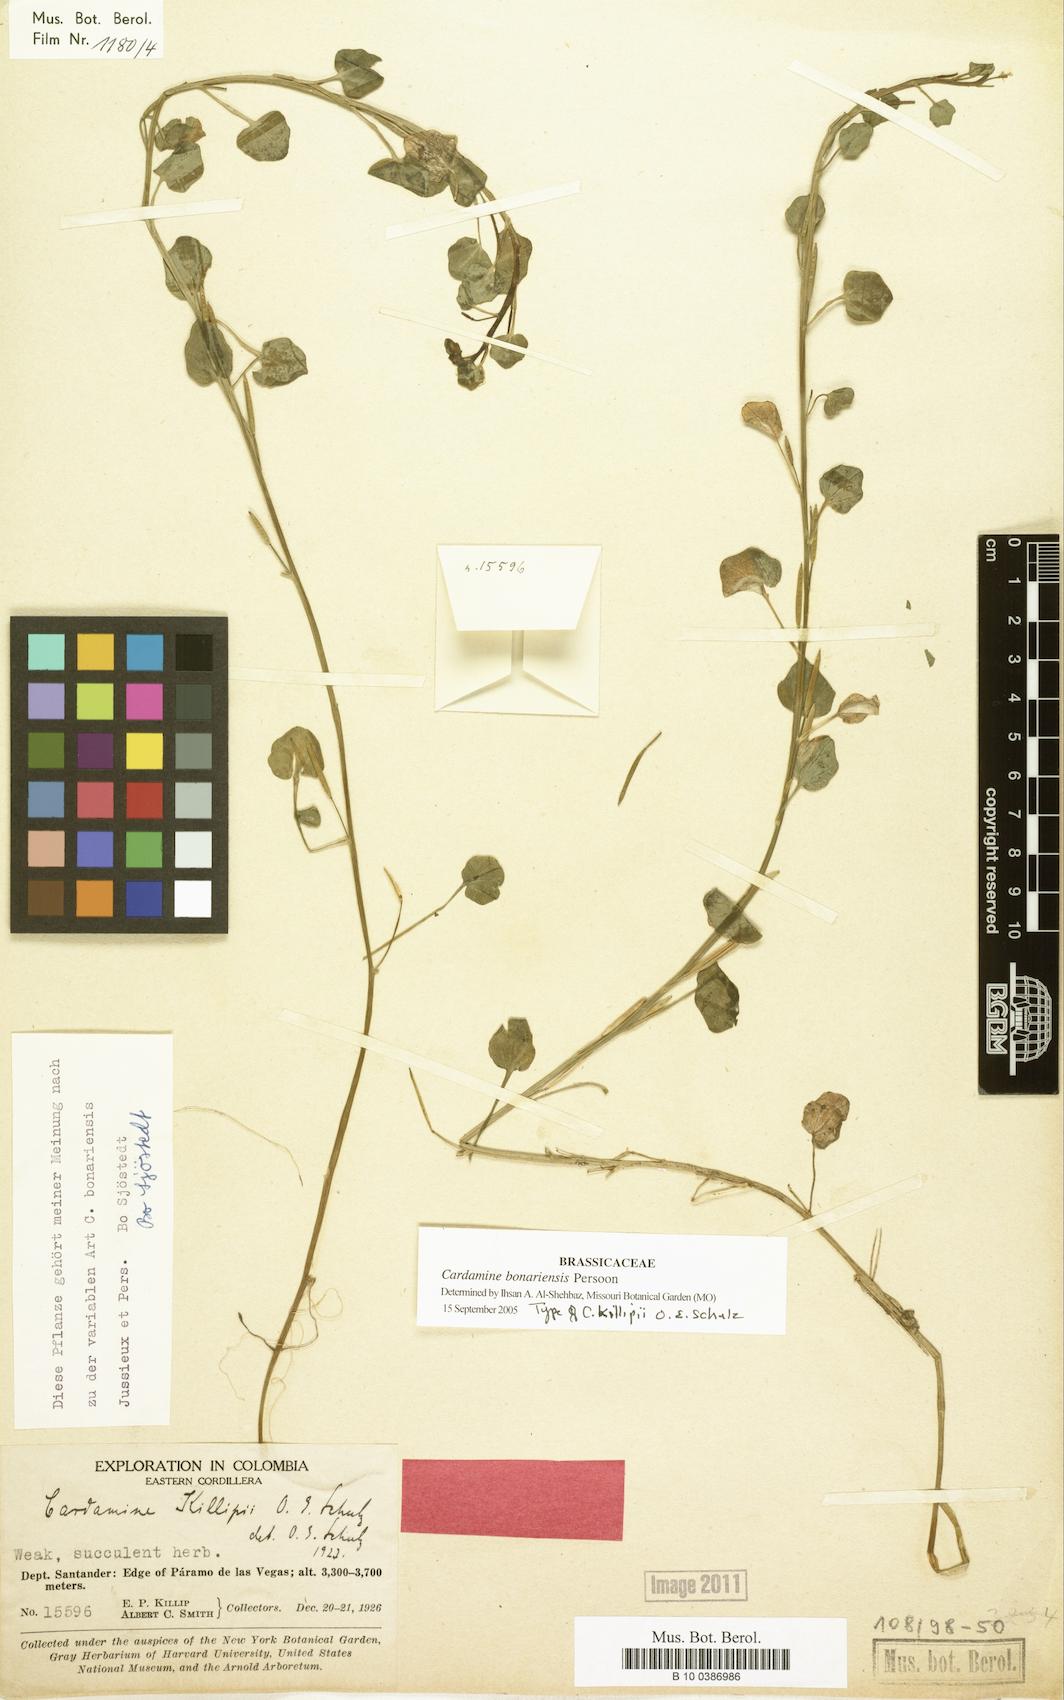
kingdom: Plantae
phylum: Tracheophyta
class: Magnoliopsida
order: Brassicales
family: Brassicaceae
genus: Cardamine
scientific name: Cardamine bonariensis
